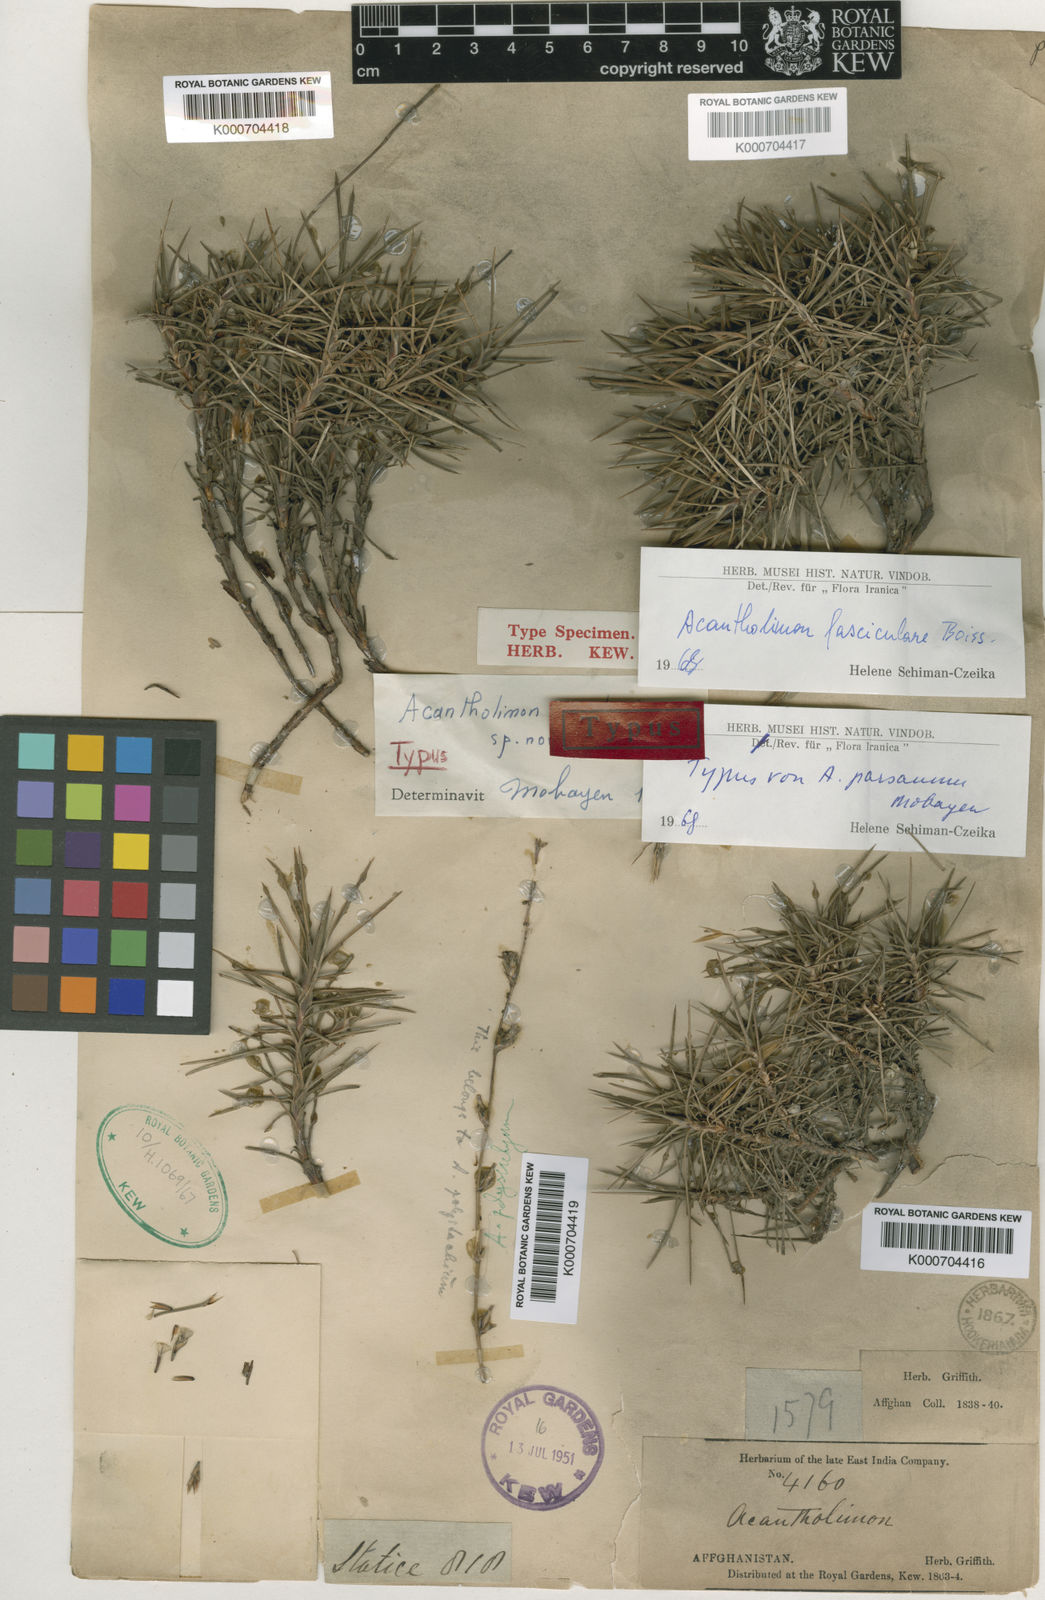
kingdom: Plantae
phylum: Tracheophyta
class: Magnoliopsida
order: Caryophyllales
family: Plumbaginaceae
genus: Acantholimon
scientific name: Acantholimon fasciculare
